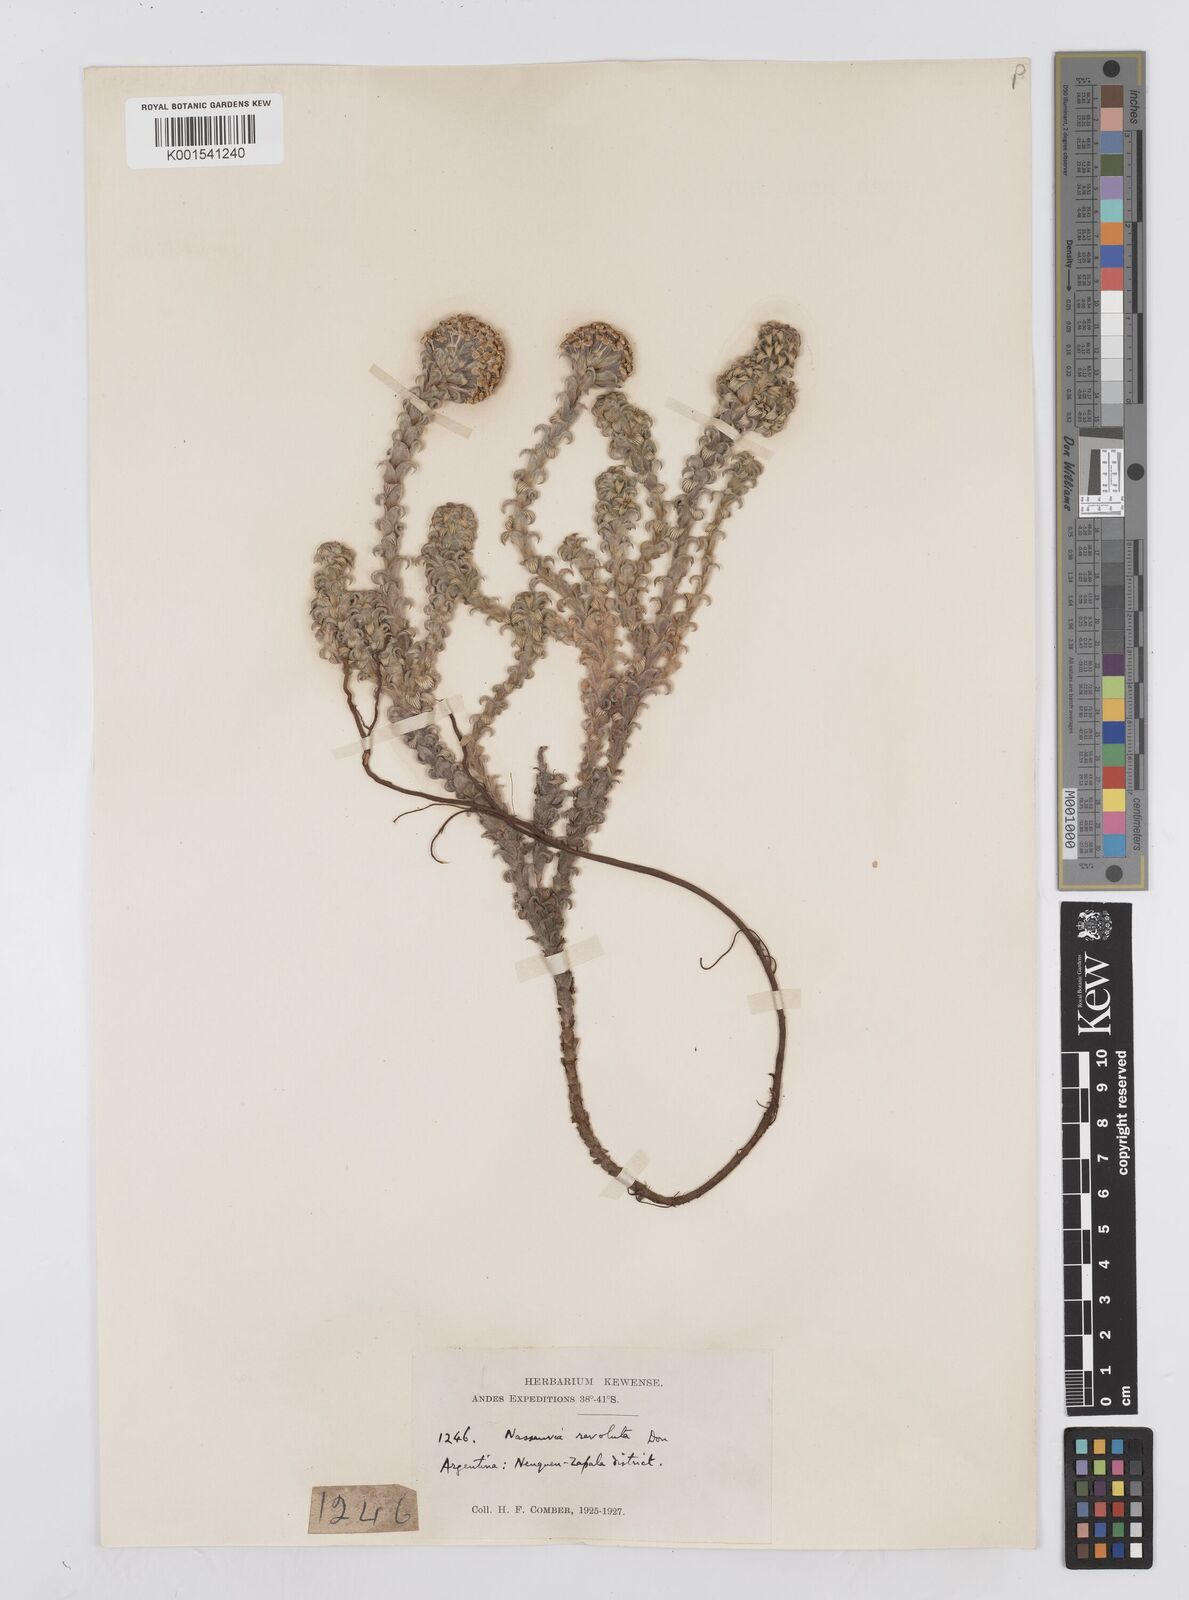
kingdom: Plantae
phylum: Tracheophyta
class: Magnoliopsida
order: Asterales
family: Asteraceae
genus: Nassauvia
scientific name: Nassauvia revoluta
